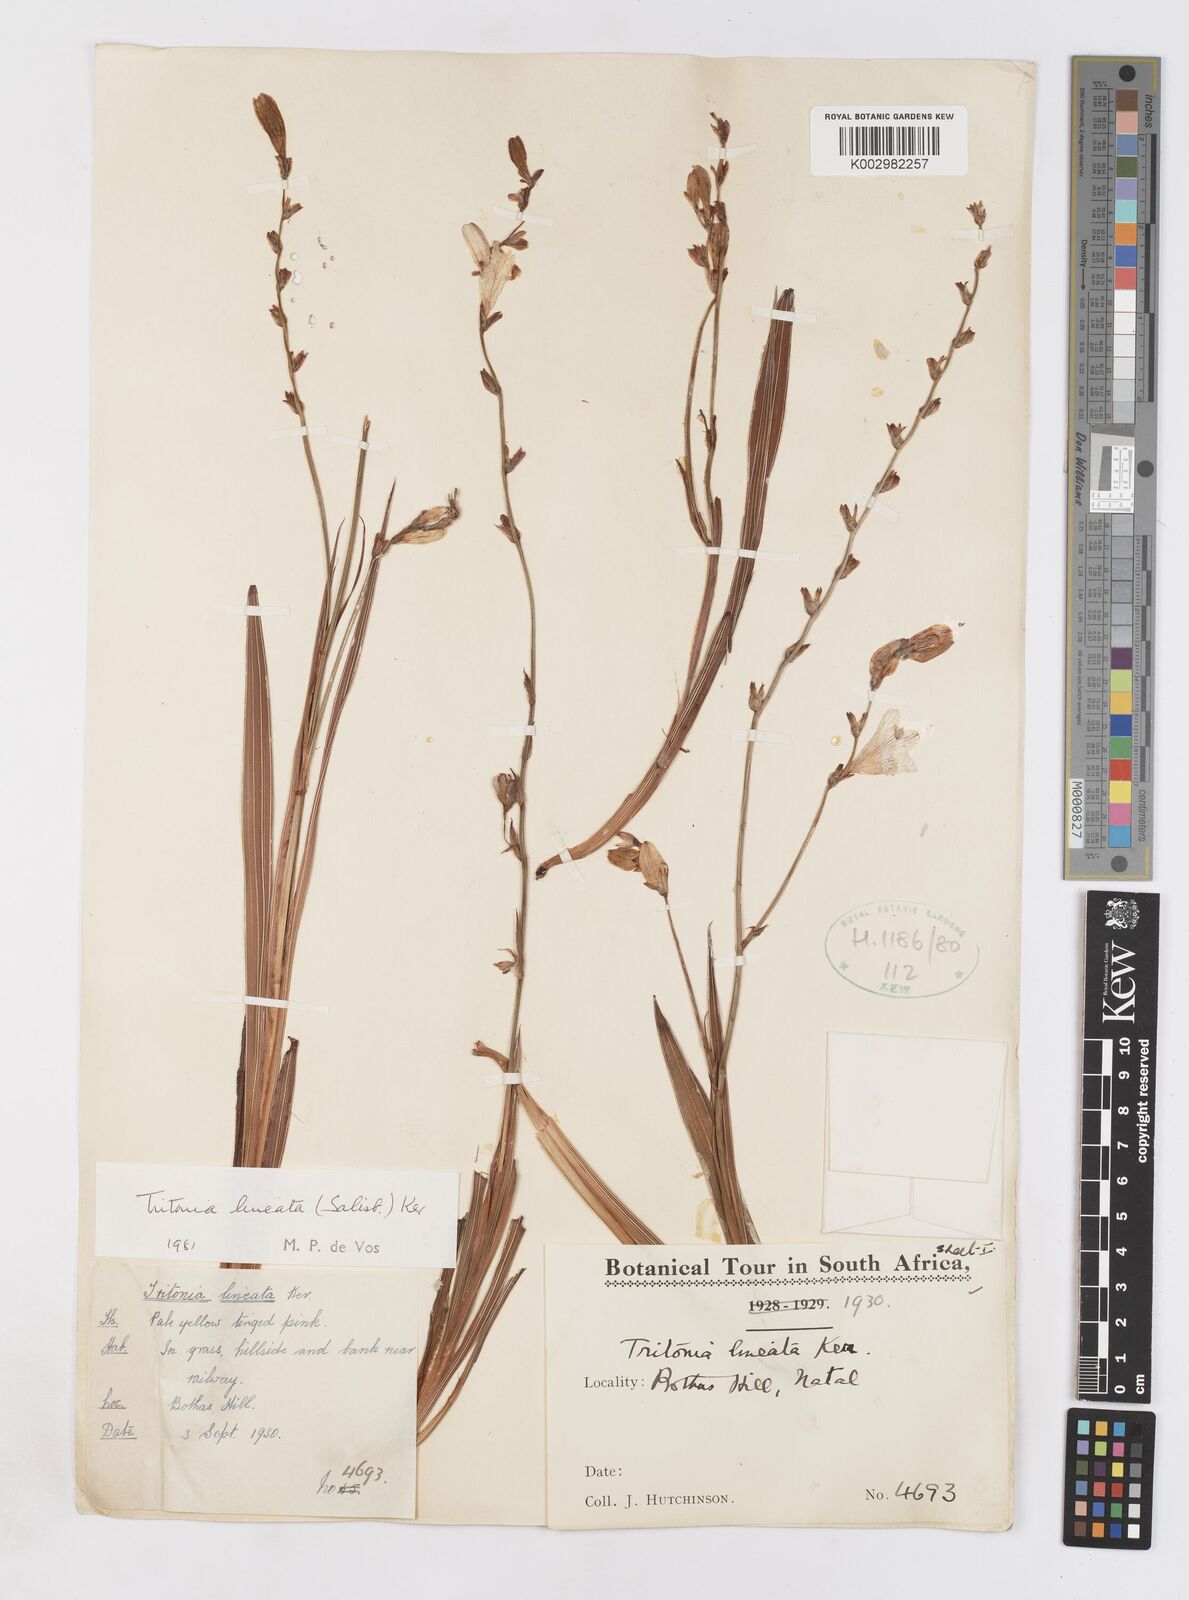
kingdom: Plantae
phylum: Tracheophyta
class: Liliopsida
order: Asparagales
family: Iridaceae
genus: Tritonia
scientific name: Tritonia gladiolaris
